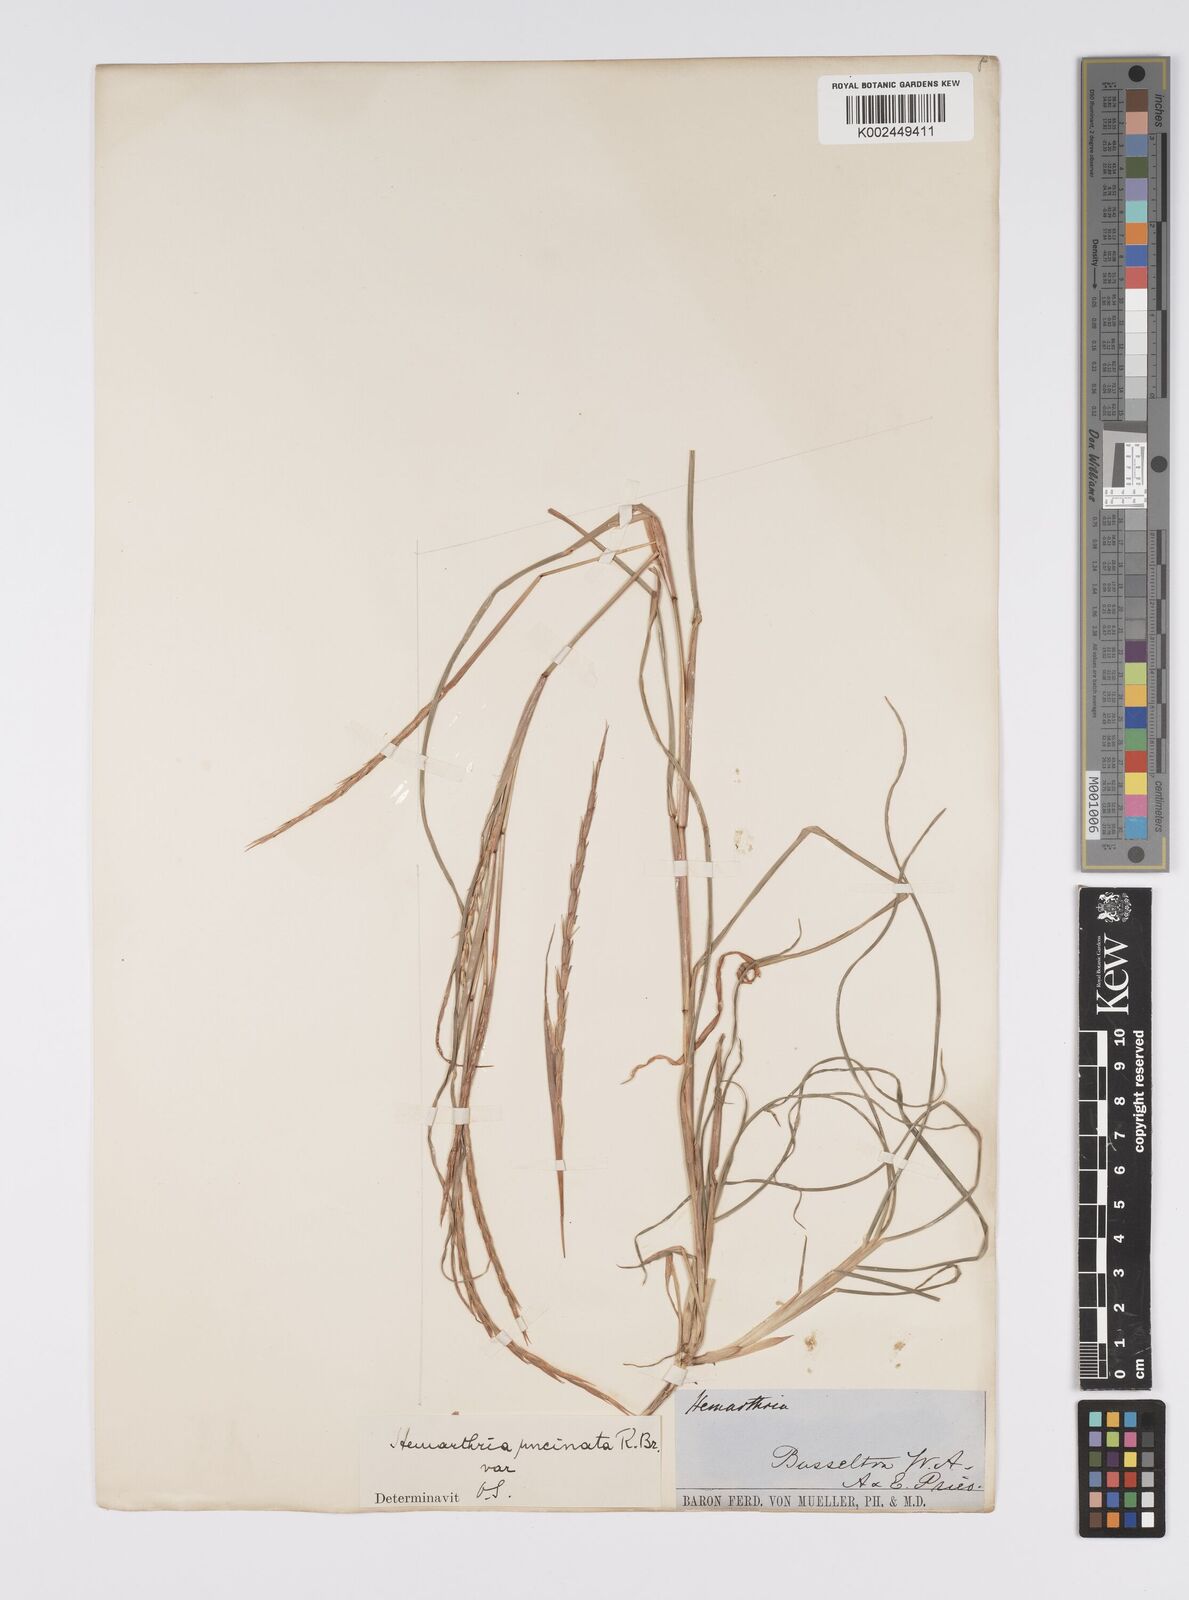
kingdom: Plantae
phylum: Tracheophyta
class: Liliopsida
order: Poales
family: Poaceae
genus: Hemarthria
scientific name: Hemarthria uncinata
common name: Matgrass
